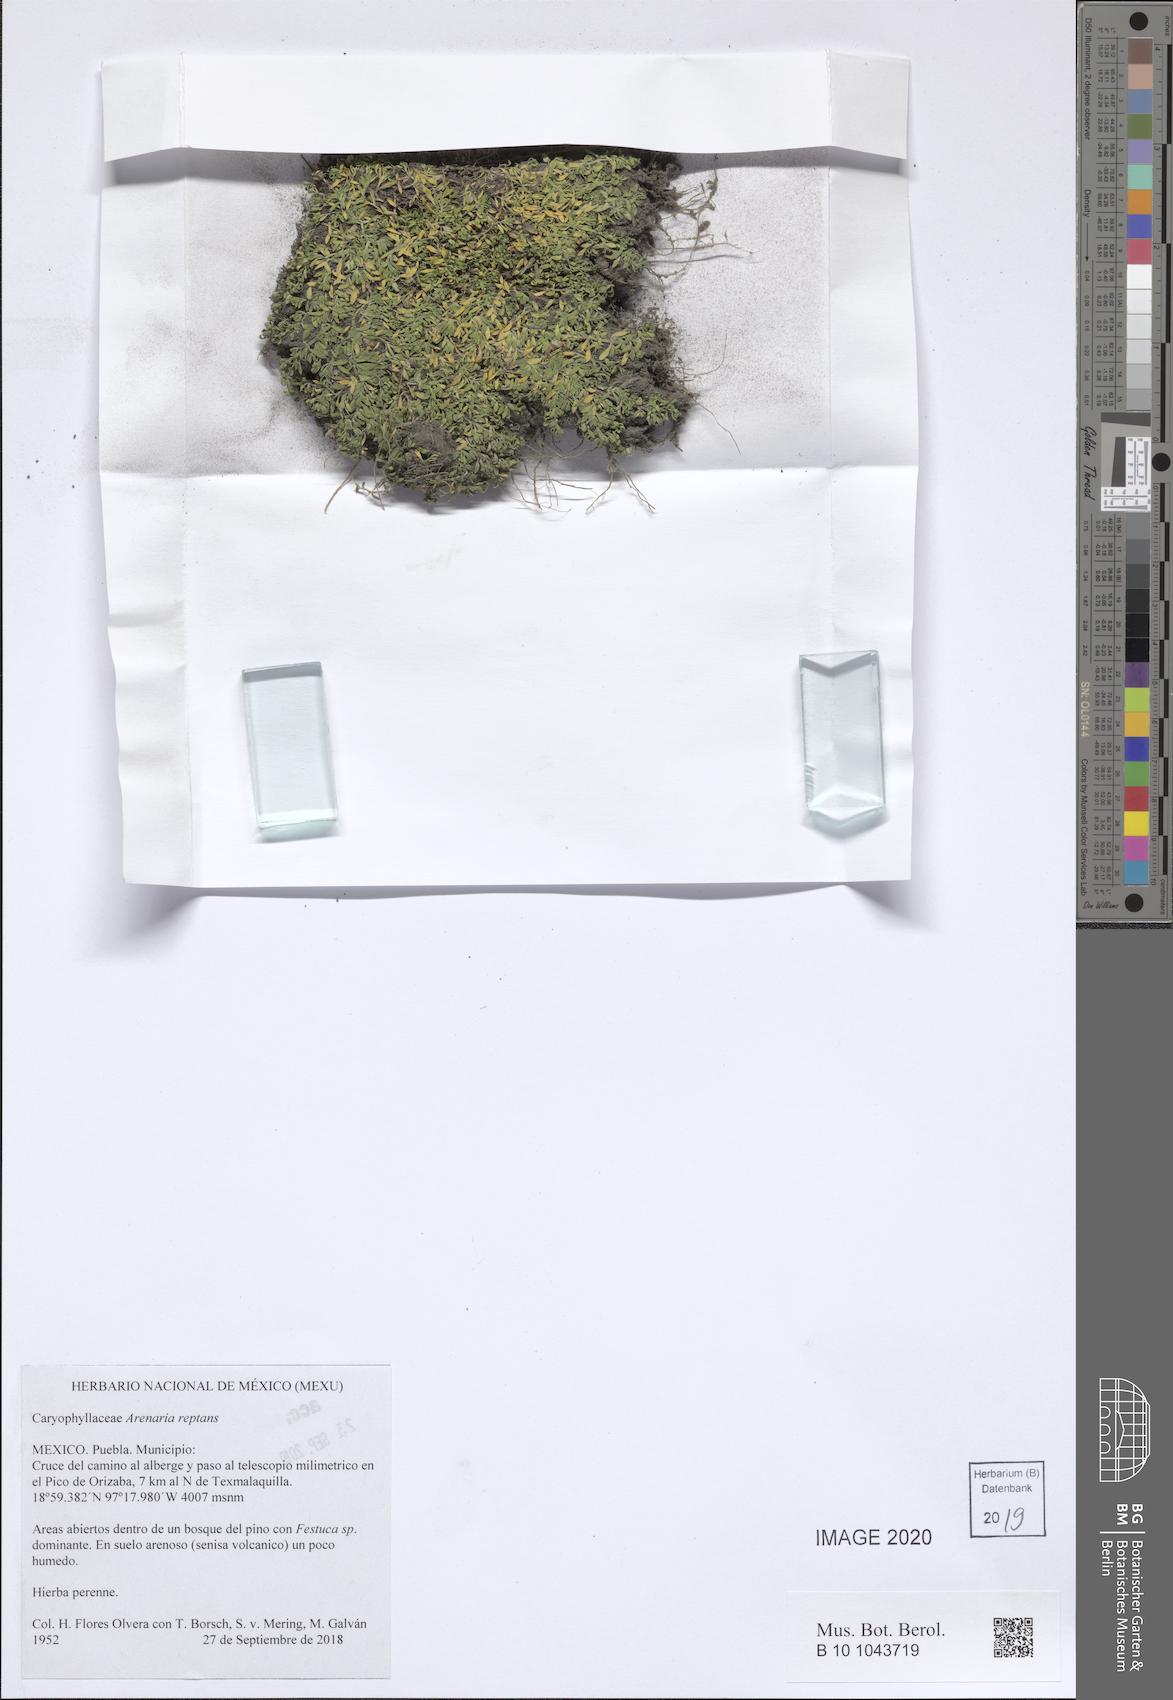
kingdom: Plantae
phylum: Tracheophyta
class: Magnoliopsida
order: Caryophyllales
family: Caryophyllaceae
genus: Arenaria
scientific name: Arenaria reptans
